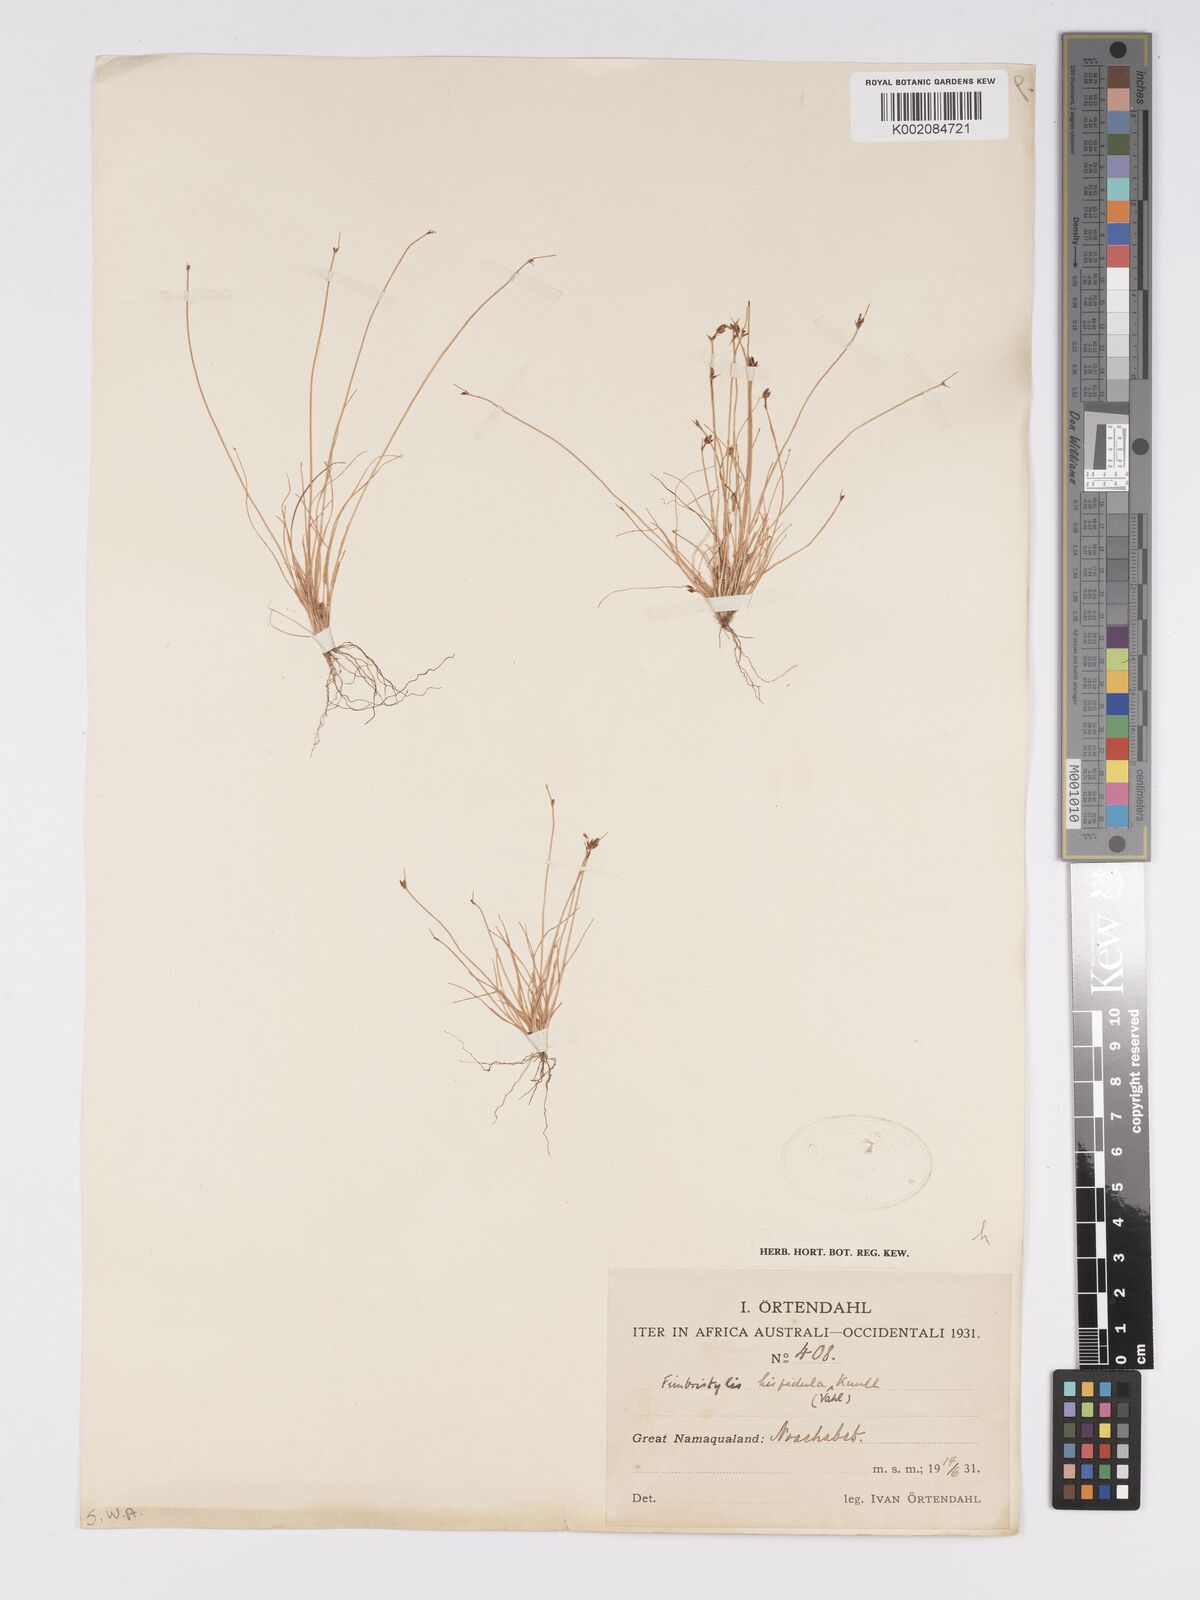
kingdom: Plantae
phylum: Tracheophyta
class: Liliopsida
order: Poales
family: Cyperaceae
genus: Bulbostylis
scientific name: Bulbostylis hispidula
